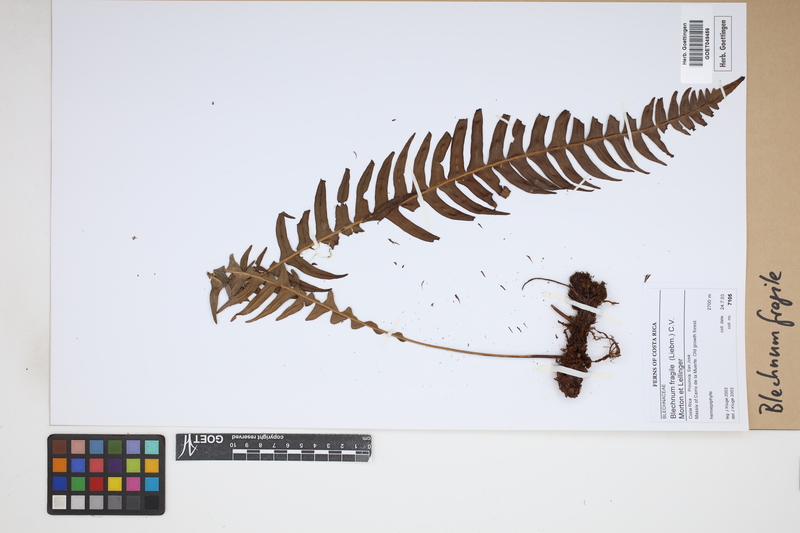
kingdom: Plantae
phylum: Tracheophyta
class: Polypodiopsida
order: Polypodiales
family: Blechnaceae
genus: Lomaridium
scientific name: Lomaridium fragile
